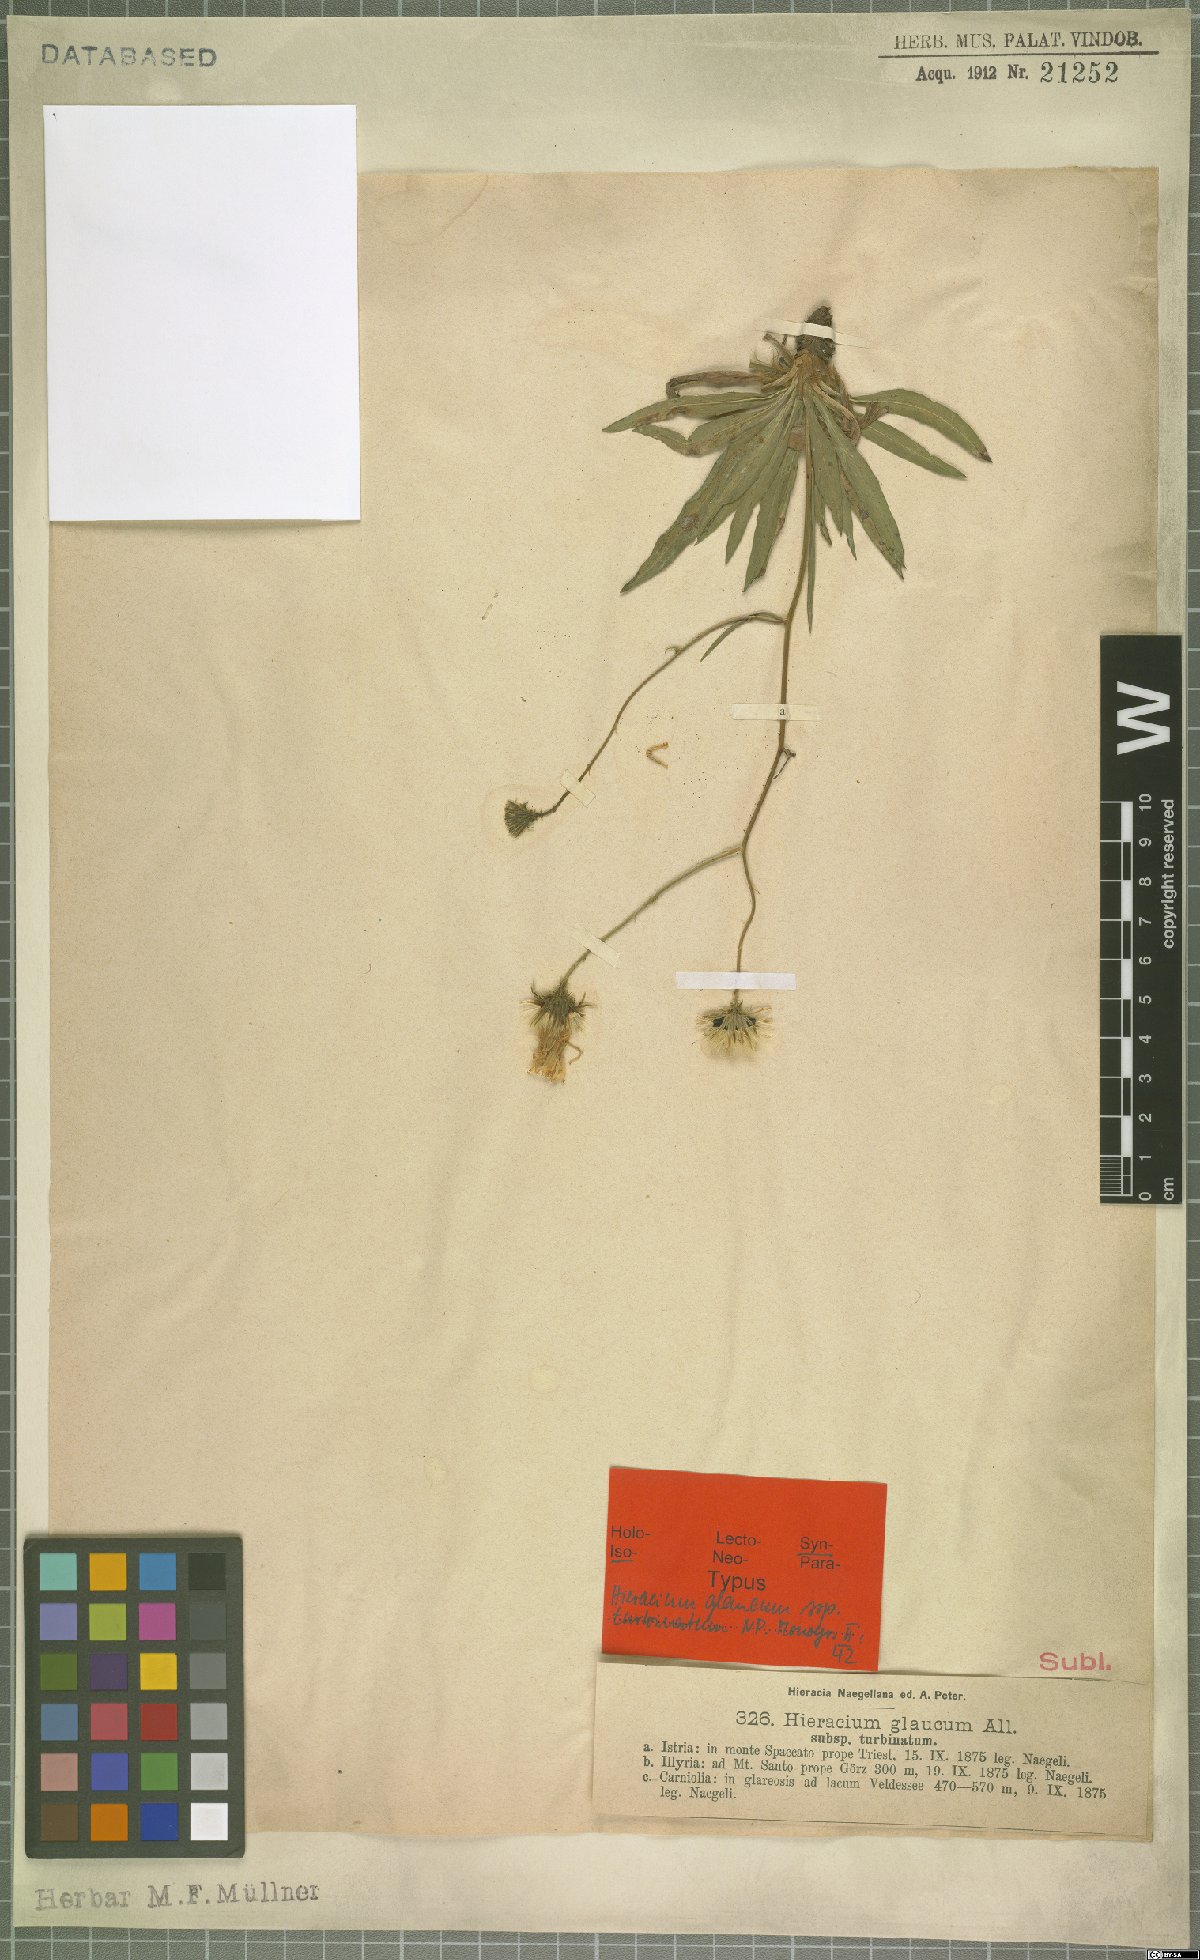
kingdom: Plantae
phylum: Tracheophyta
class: Magnoliopsida
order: Asterales
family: Asteraceae
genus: Hieracium
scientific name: Hieracium glaucum
